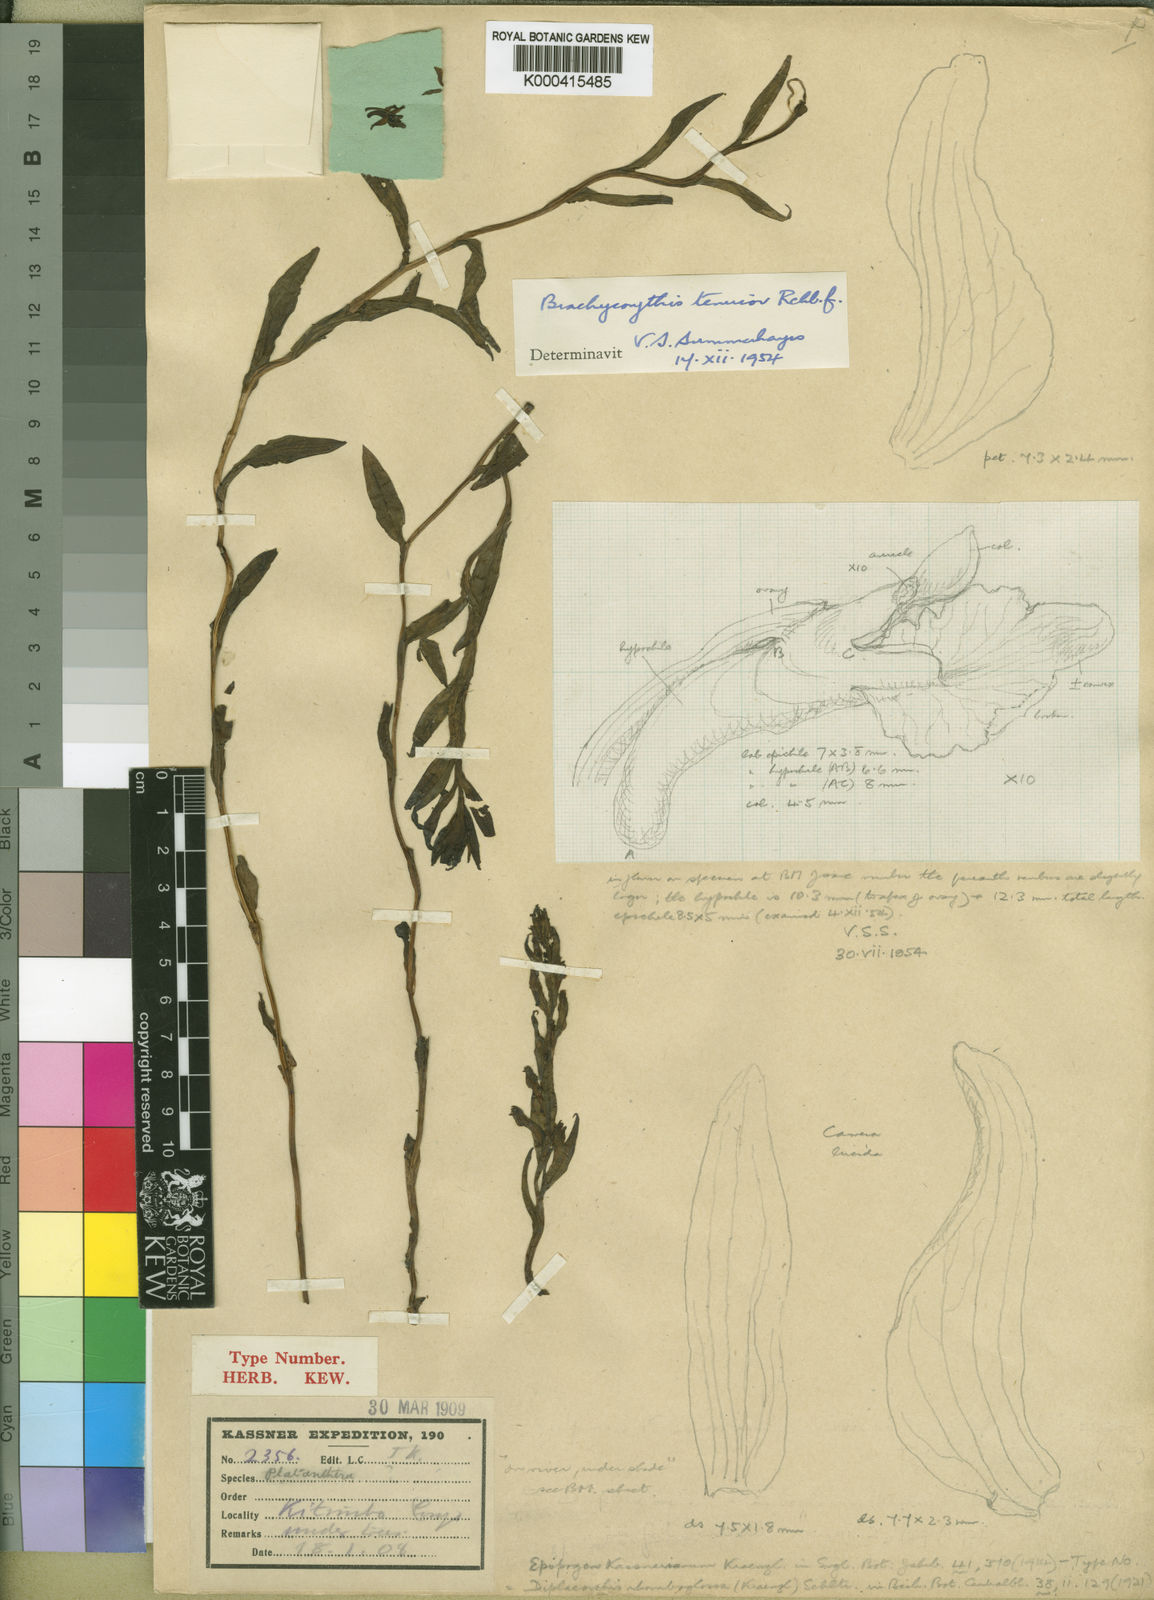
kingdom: Plantae
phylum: Tracheophyta
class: Liliopsida
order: Asparagales
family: Orchidaceae
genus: Brachycorythis
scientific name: Brachycorythis tenuior
